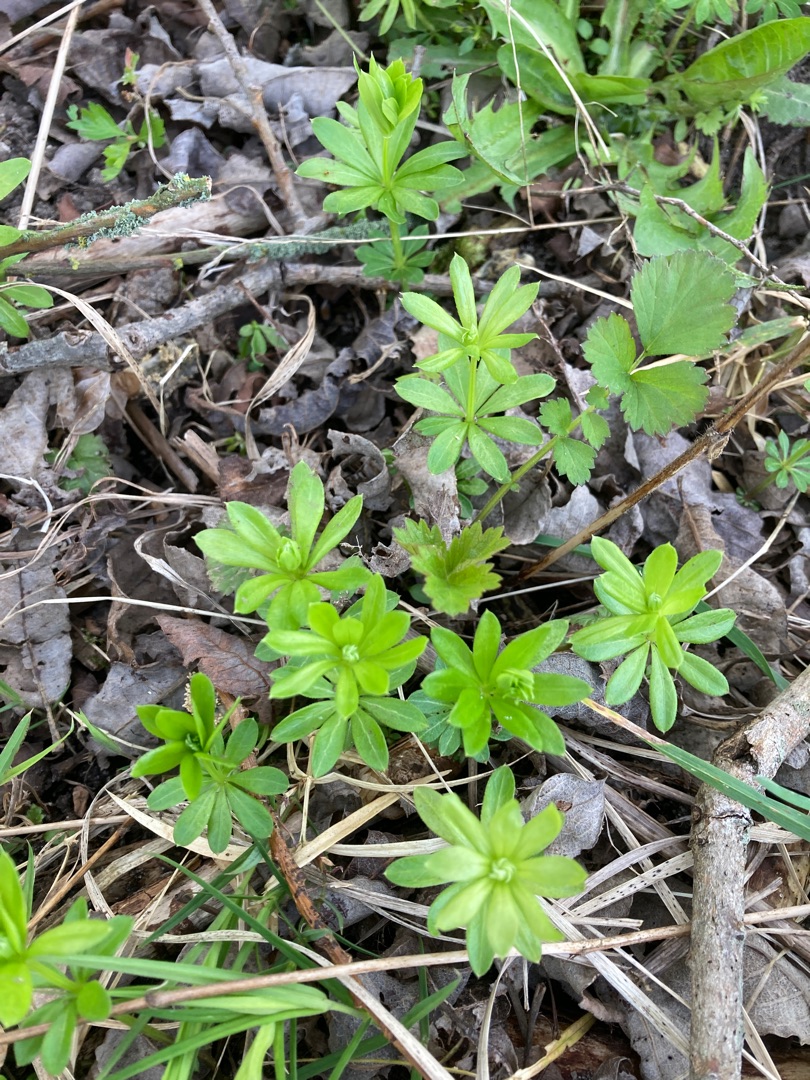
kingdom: Plantae
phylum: Tracheophyta
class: Magnoliopsida
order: Gentianales
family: Rubiaceae
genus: Galium
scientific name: Galium odoratum
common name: Skovmærke
